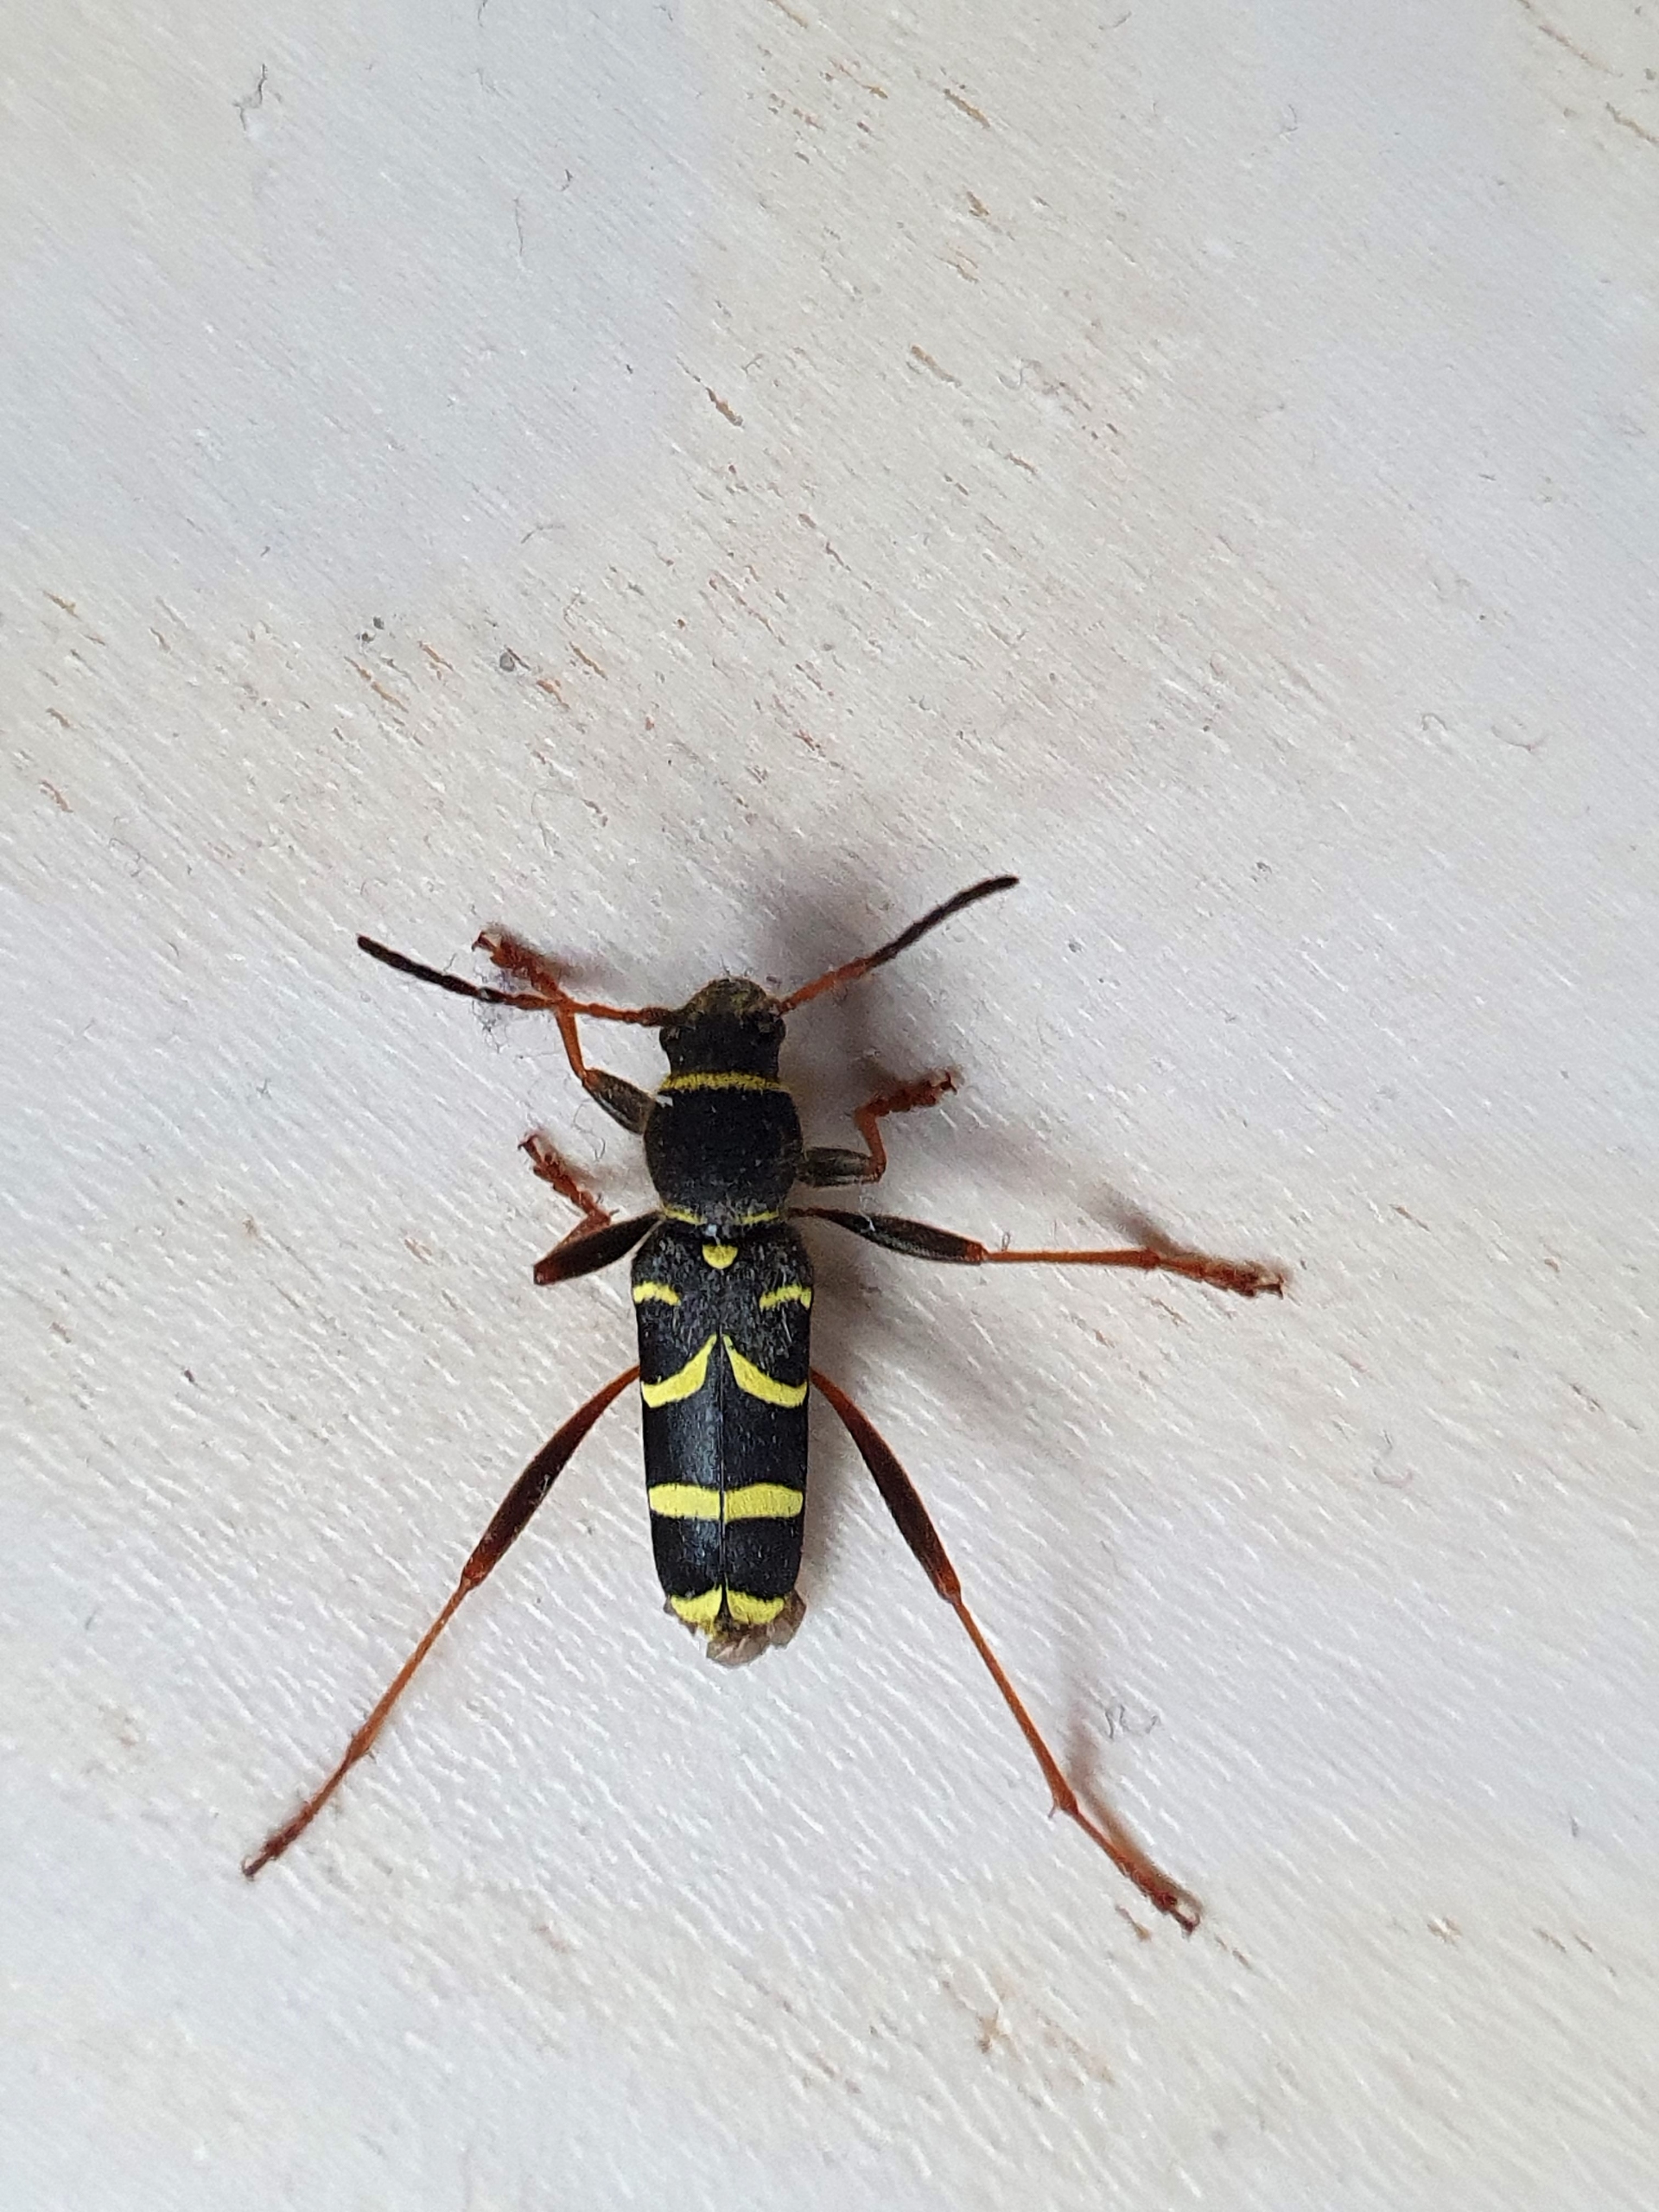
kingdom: Animalia
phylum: Arthropoda
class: Insecta
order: Coleoptera
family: Cerambycidae
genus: Clytus
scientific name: Clytus arietis
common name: Lille hvepsebuk
